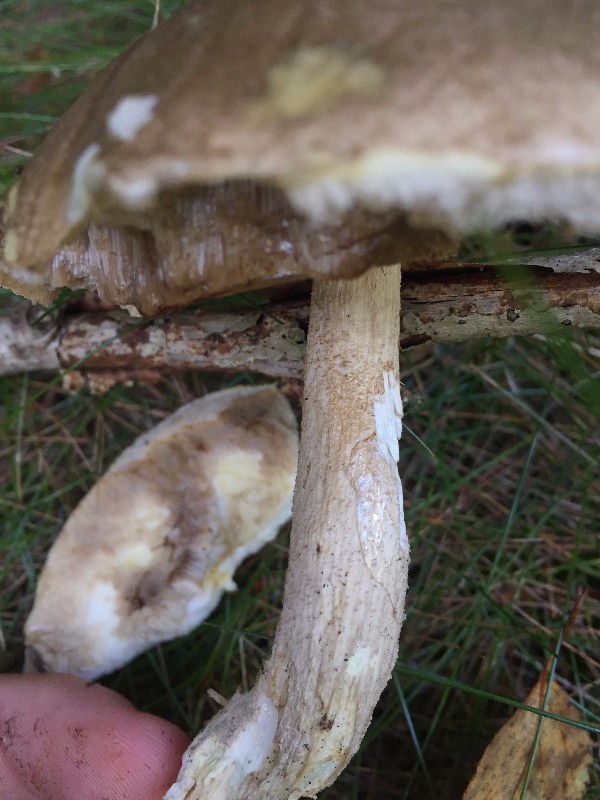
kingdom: Fungi
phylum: Basidiomycota
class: Agaricomycetes
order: Boletales
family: Boletaceae
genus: Leccinum
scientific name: Leccinum
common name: skælrørhat
